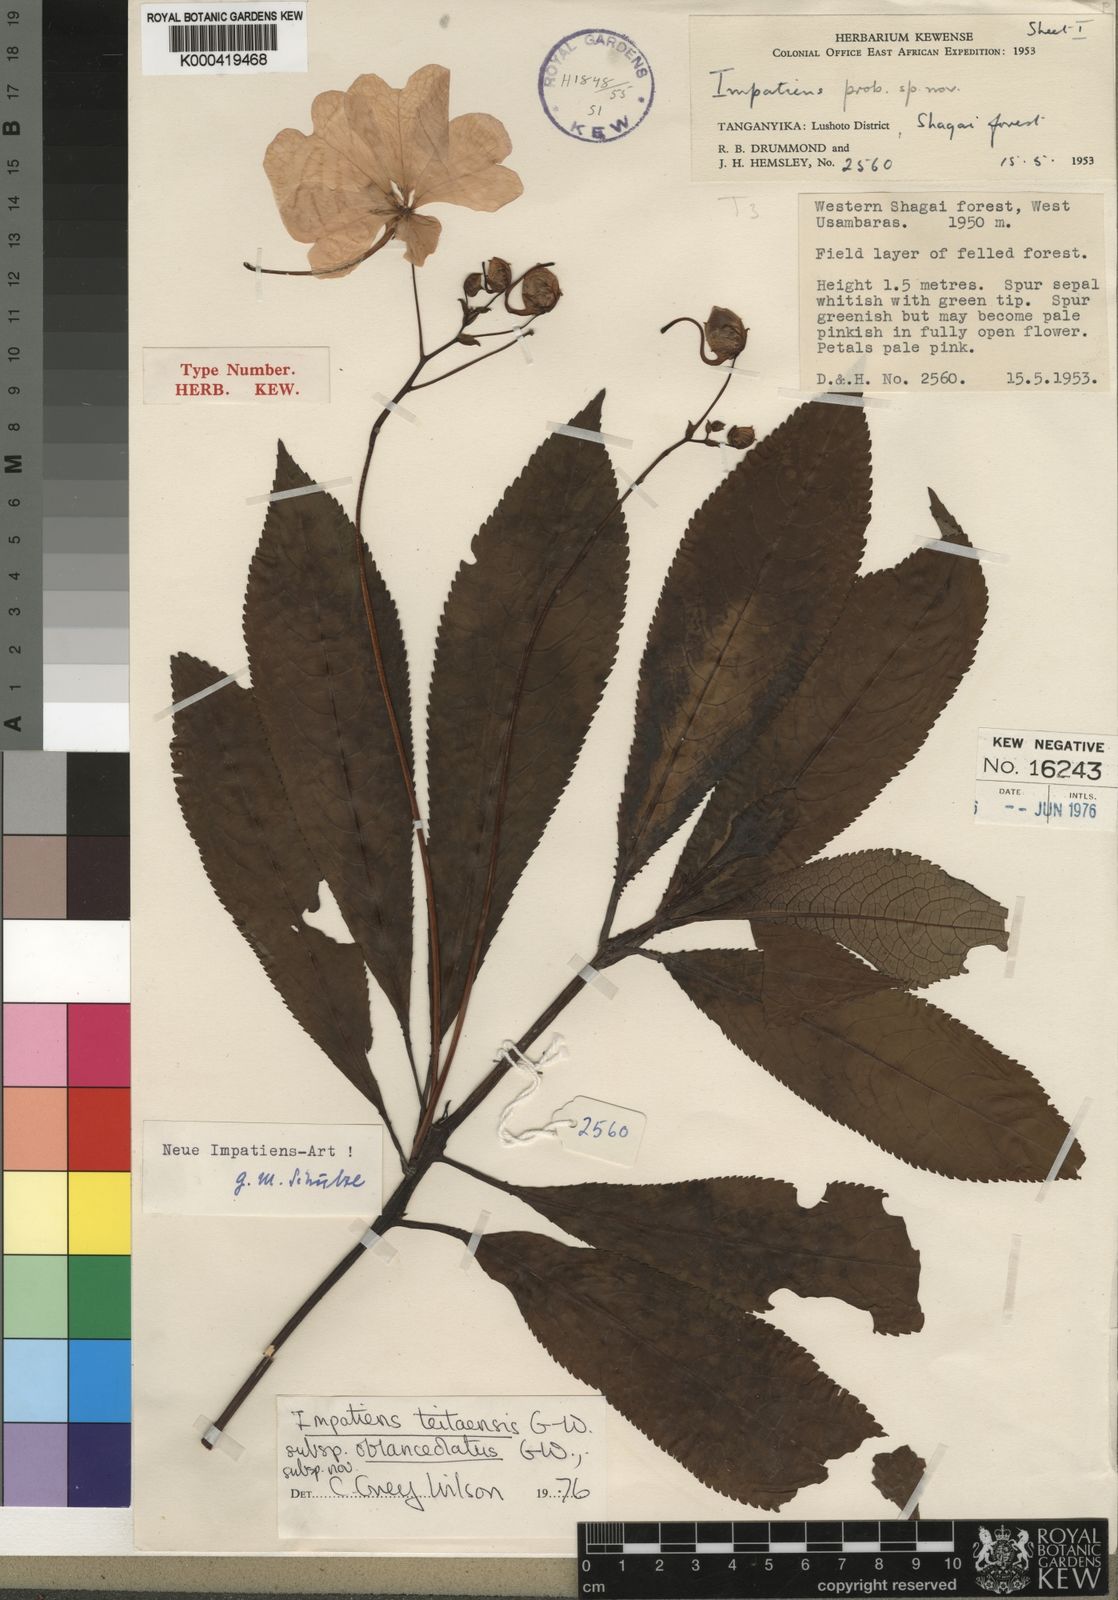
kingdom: Plantae
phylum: Tracheophyta
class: Magnoliopsida
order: Ericales
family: Balsaminaceae
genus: Impatiens
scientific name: Impatiens teitensis
